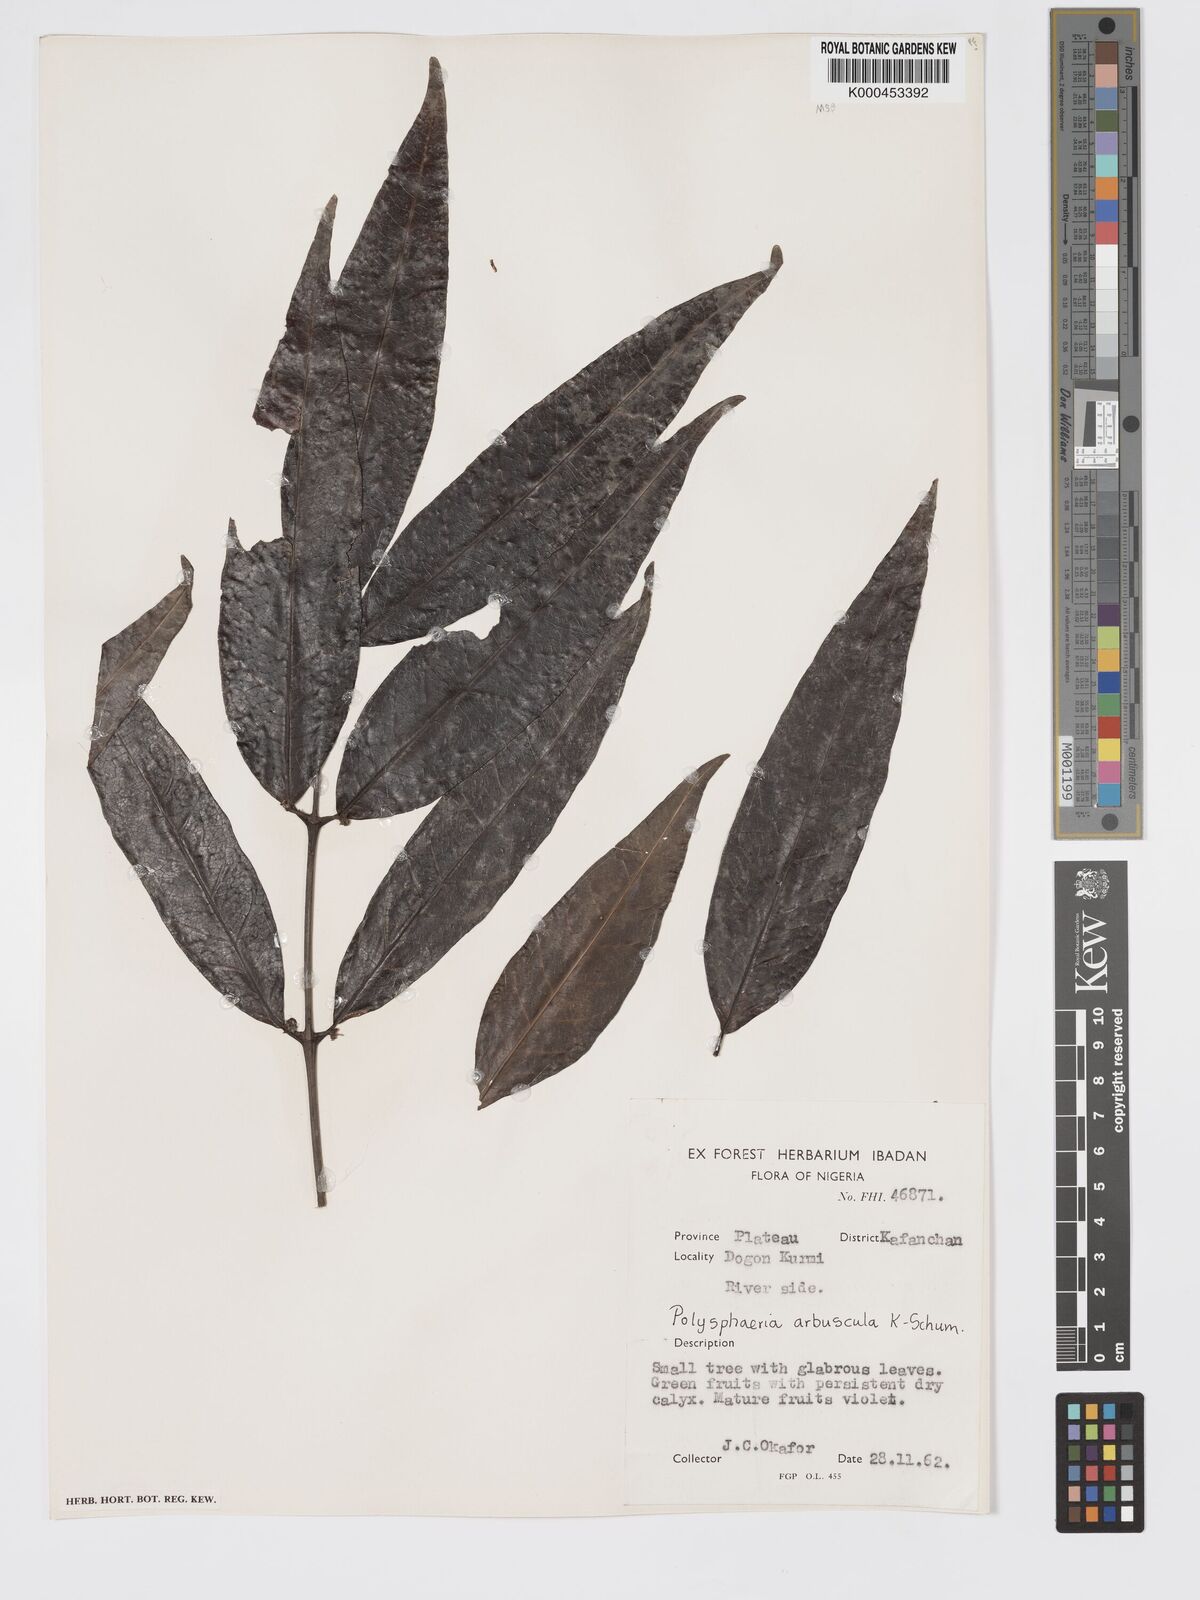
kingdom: Plantae
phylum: Tracheophyta
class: Magnoliopsida
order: Gentianales
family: Rubiaceae
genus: Polysphaeria
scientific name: Polysphaeria arbuscula
